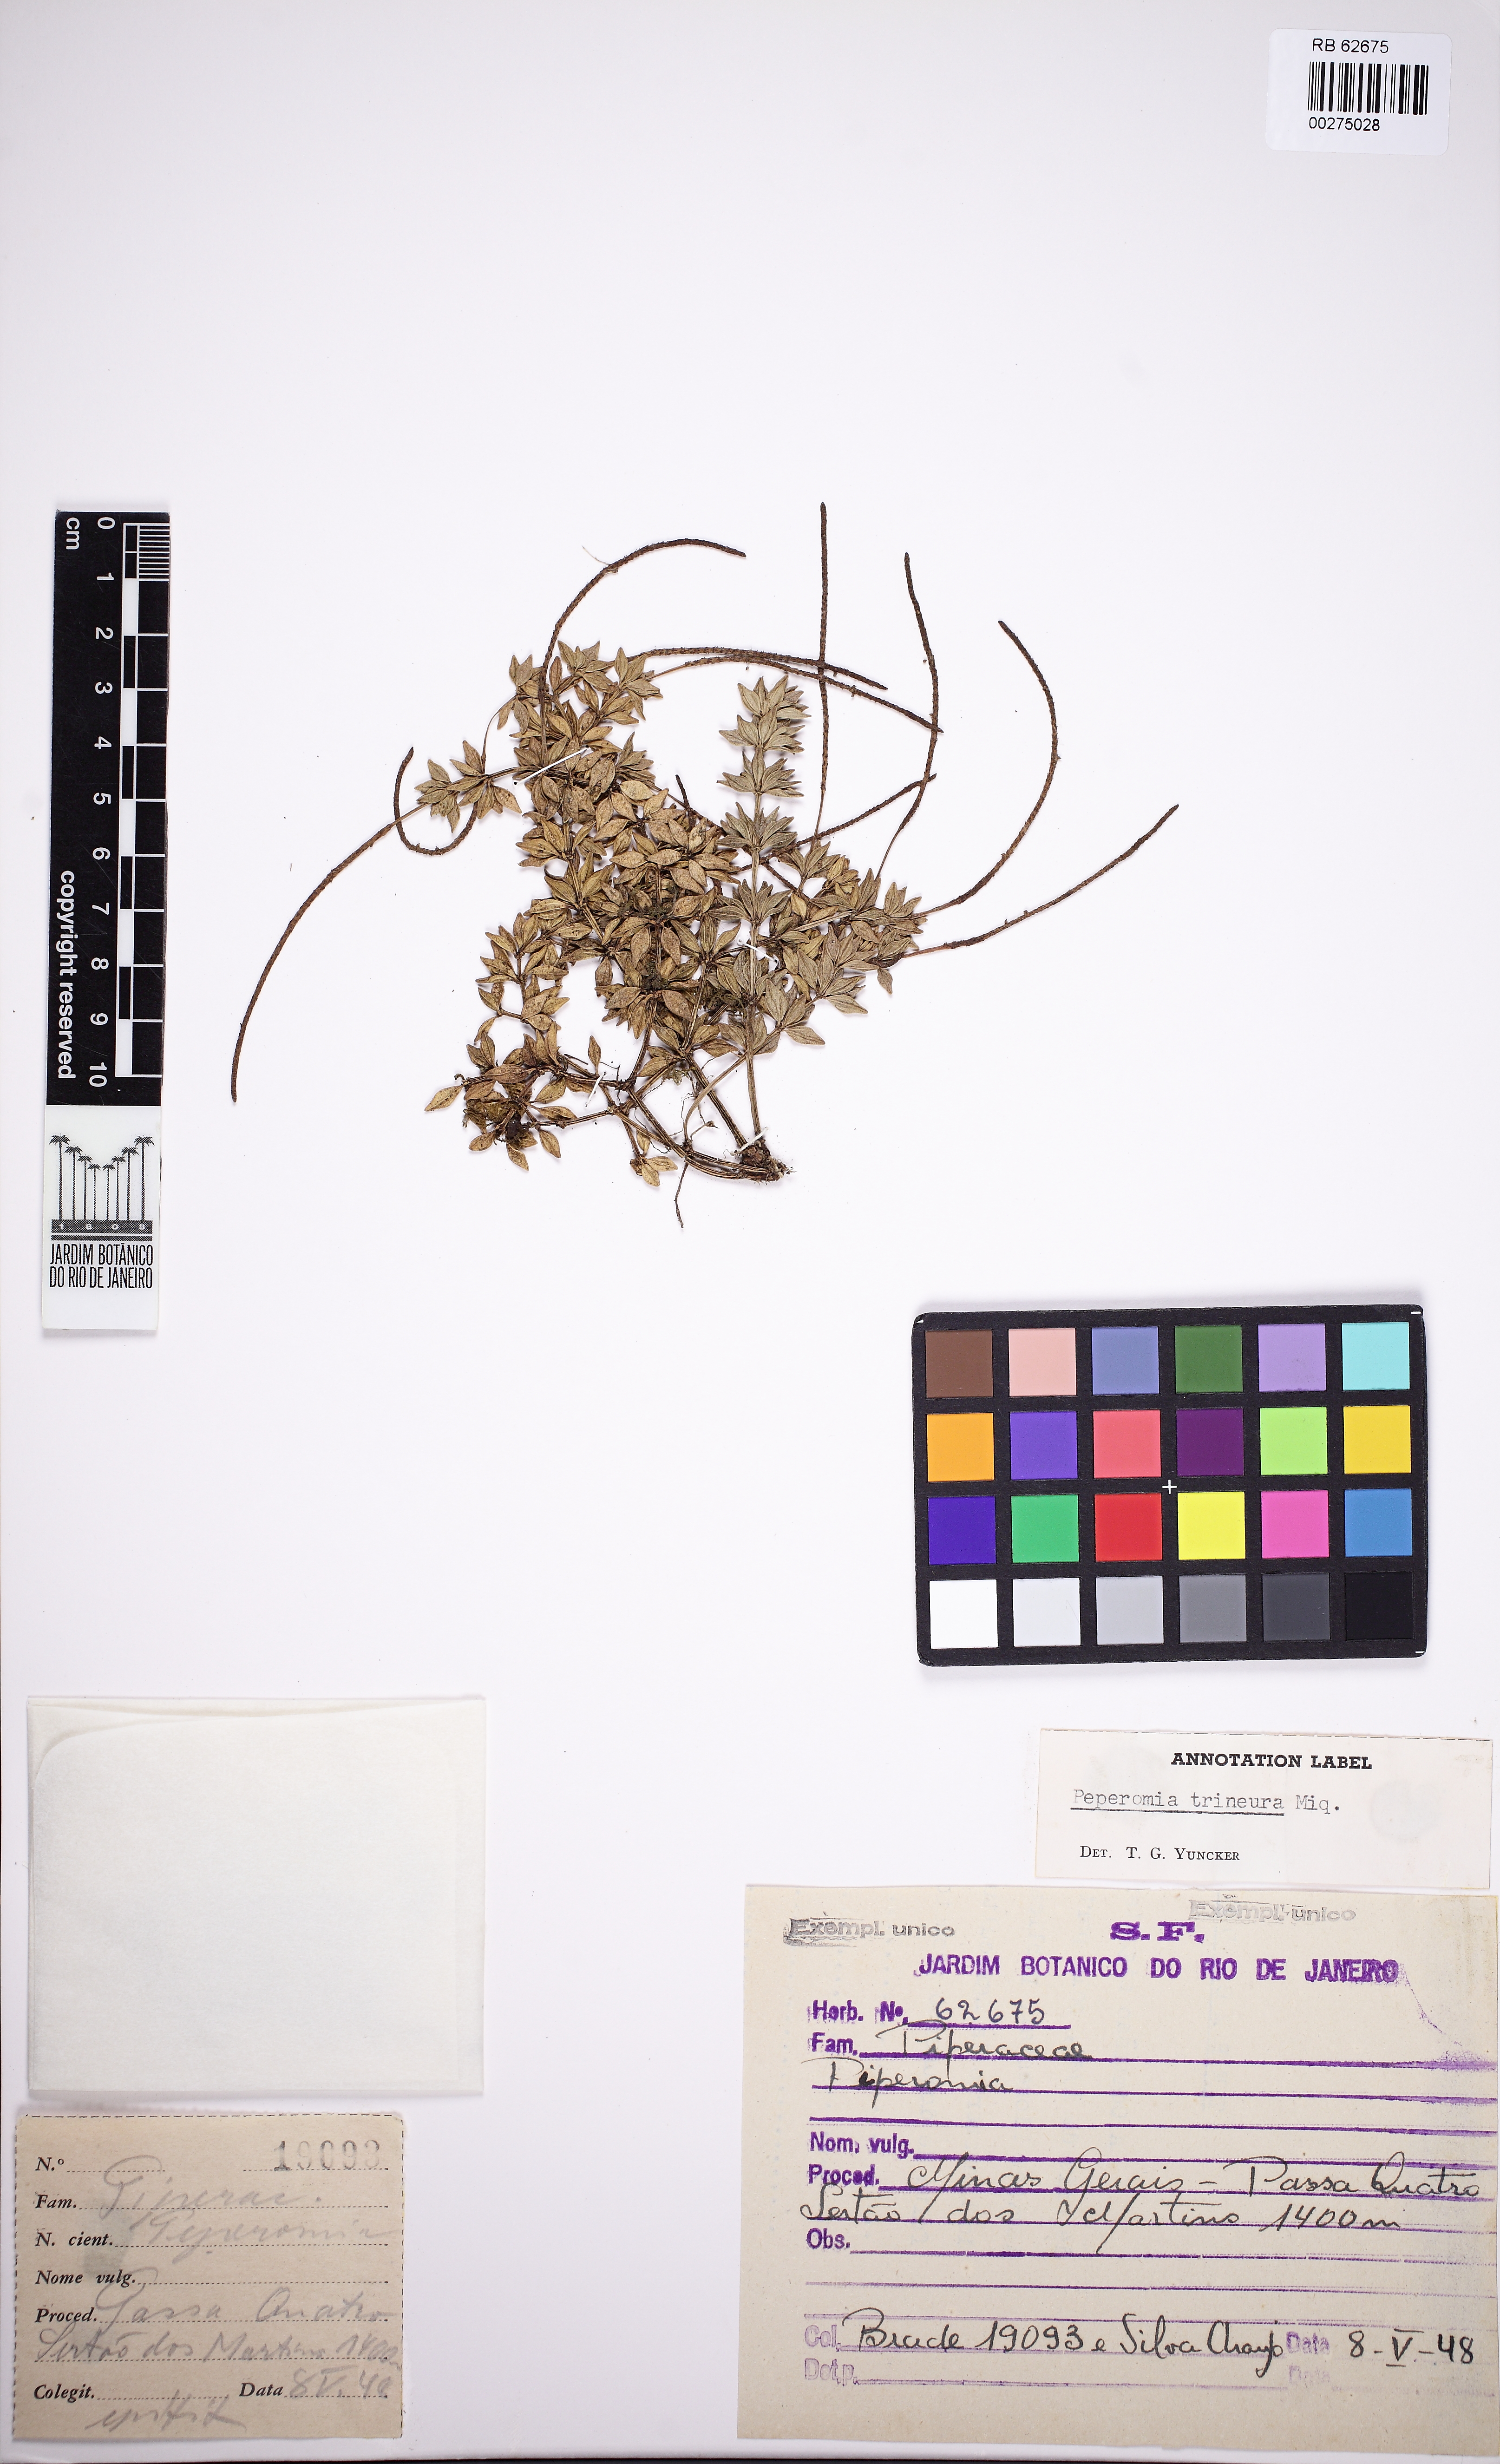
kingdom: Plantae
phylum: Tracheophyta
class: Magnoliopsida
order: Piperales
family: Piperaceae
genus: Peperomia
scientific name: Peperomia trineura
